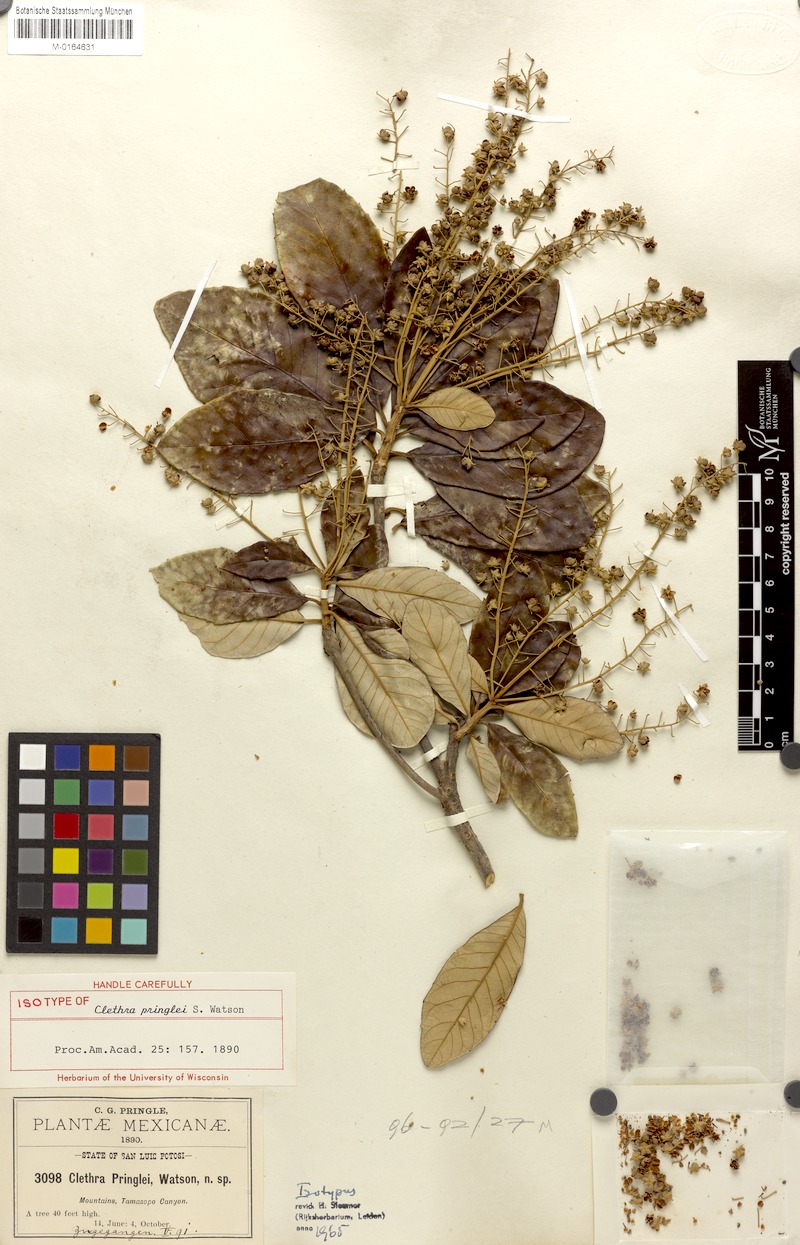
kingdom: Plantae
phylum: Tracheophyta
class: Magnoliopsida
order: Ericales
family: Clethraceae
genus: Clethra
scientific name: Clethra pringlei
